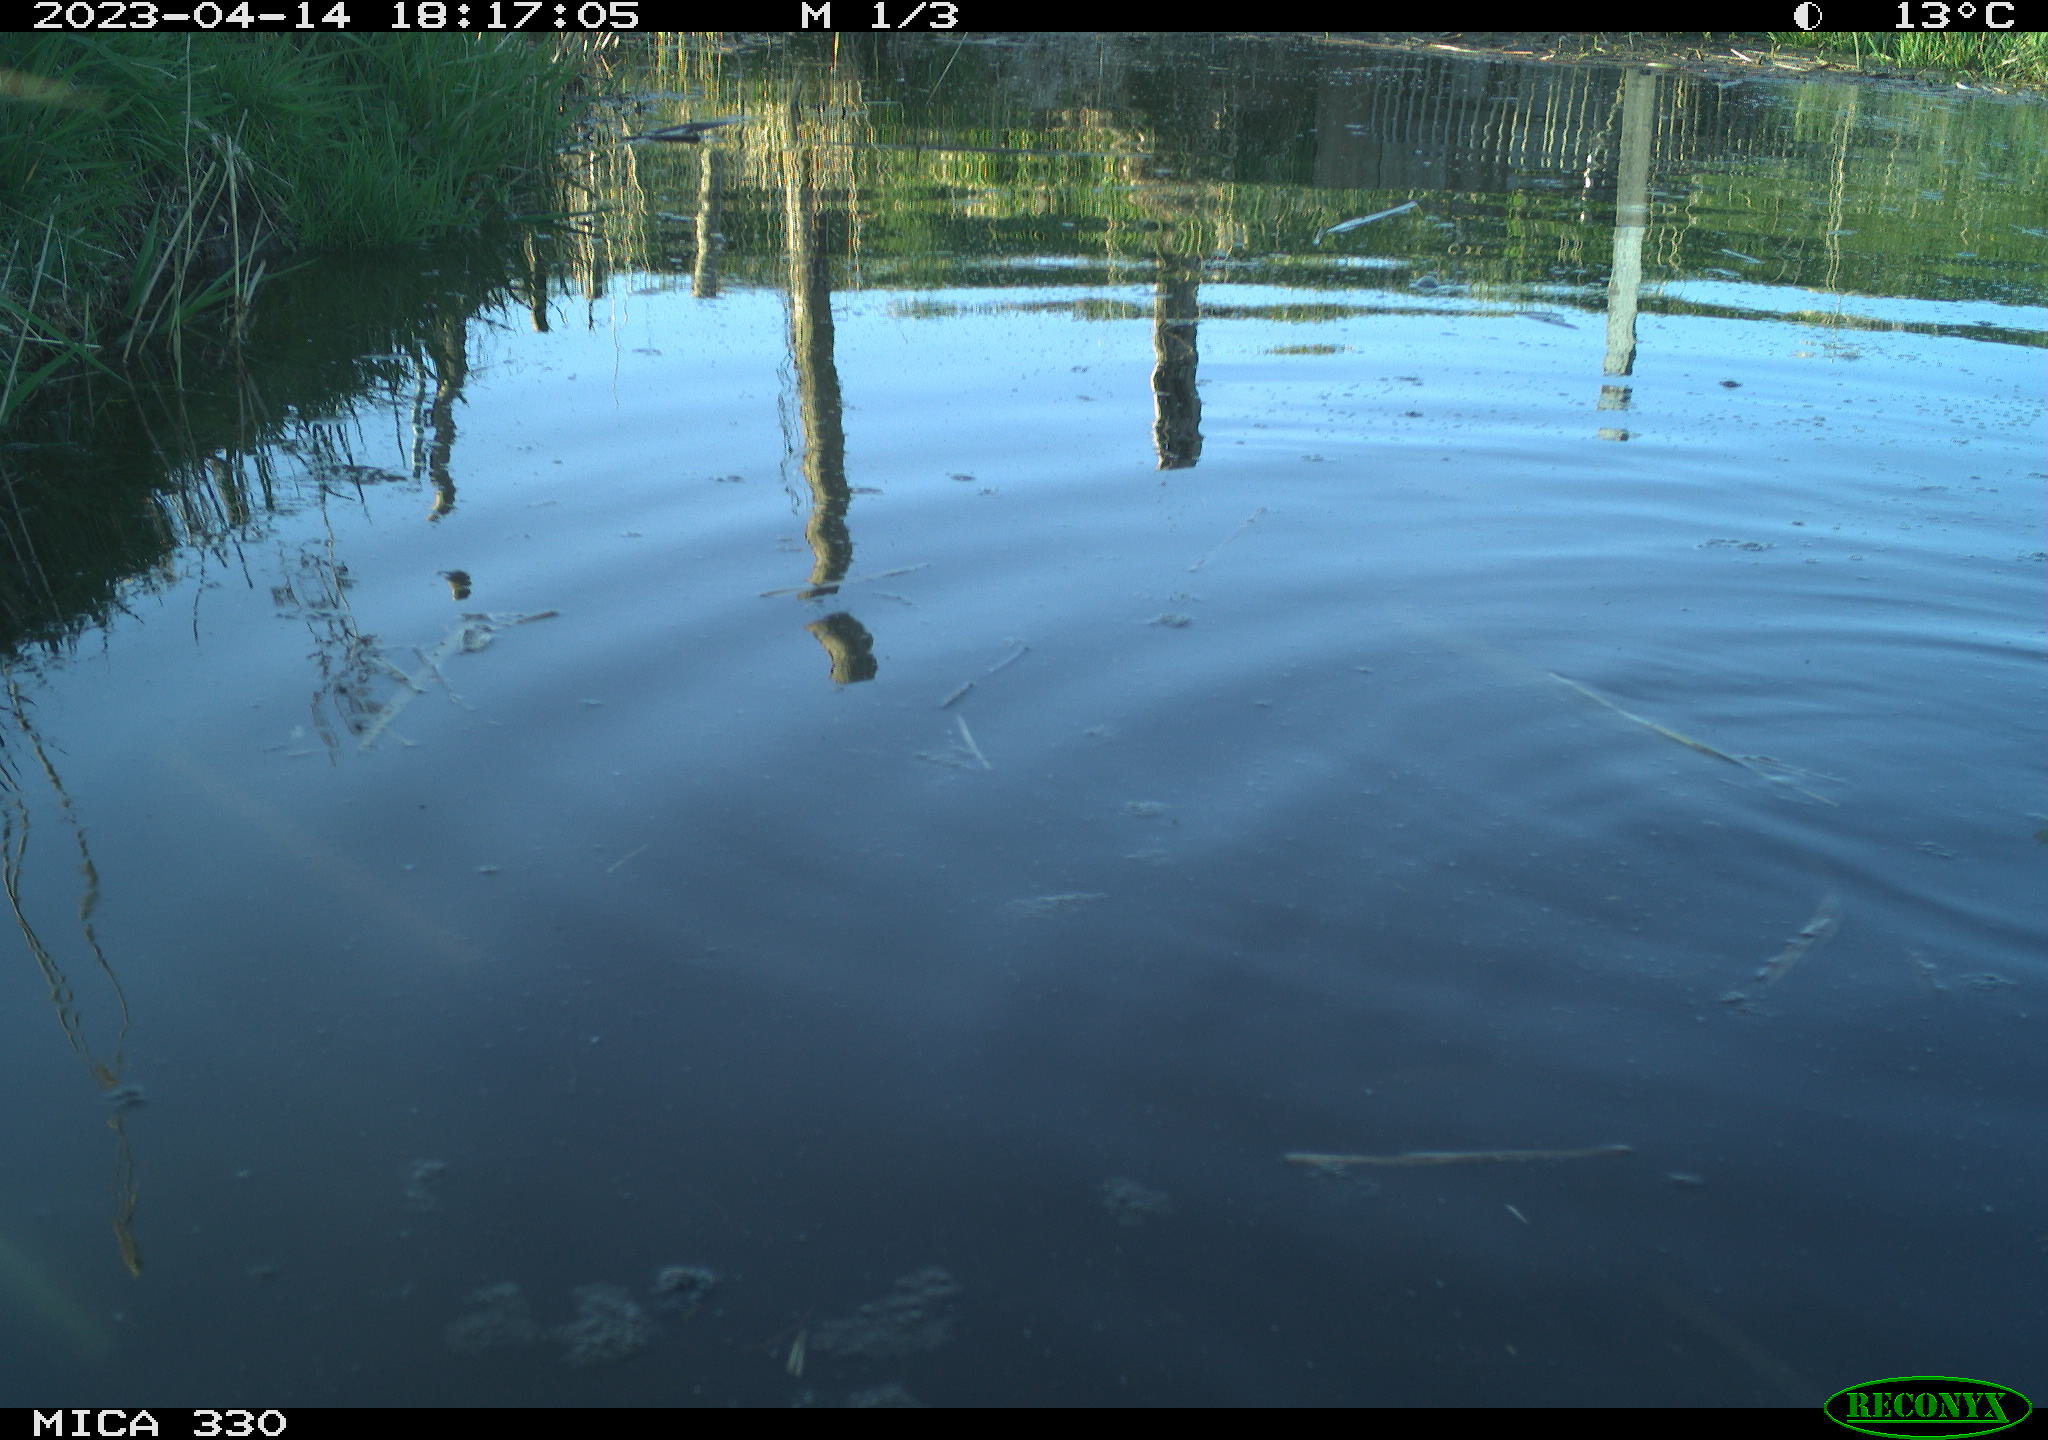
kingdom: Animalia
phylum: Chordata
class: Aves
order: Anseriformes
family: Anatidae
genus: Anas
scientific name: Anas
